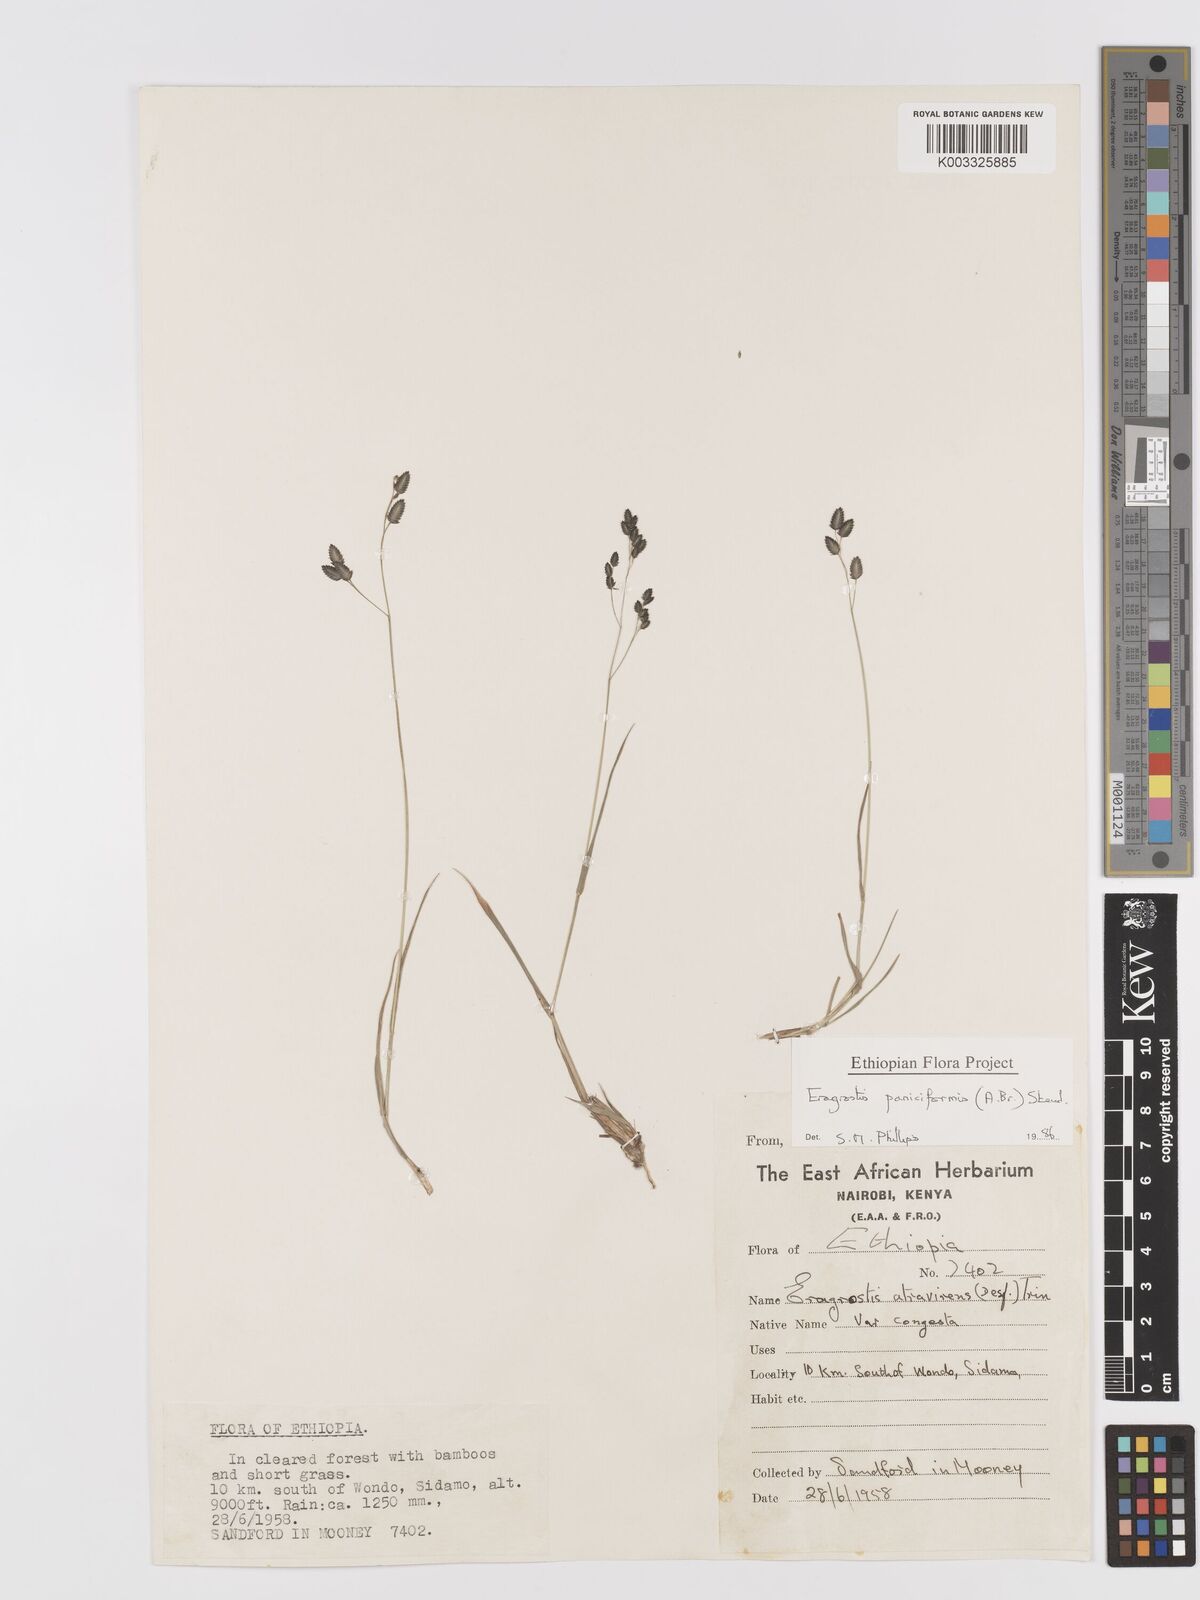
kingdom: Plantae
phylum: Tracheophyta
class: Liliopsida
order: Poales
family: Poaceae
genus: Eragrostis
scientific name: Eragrostis paniciformis
